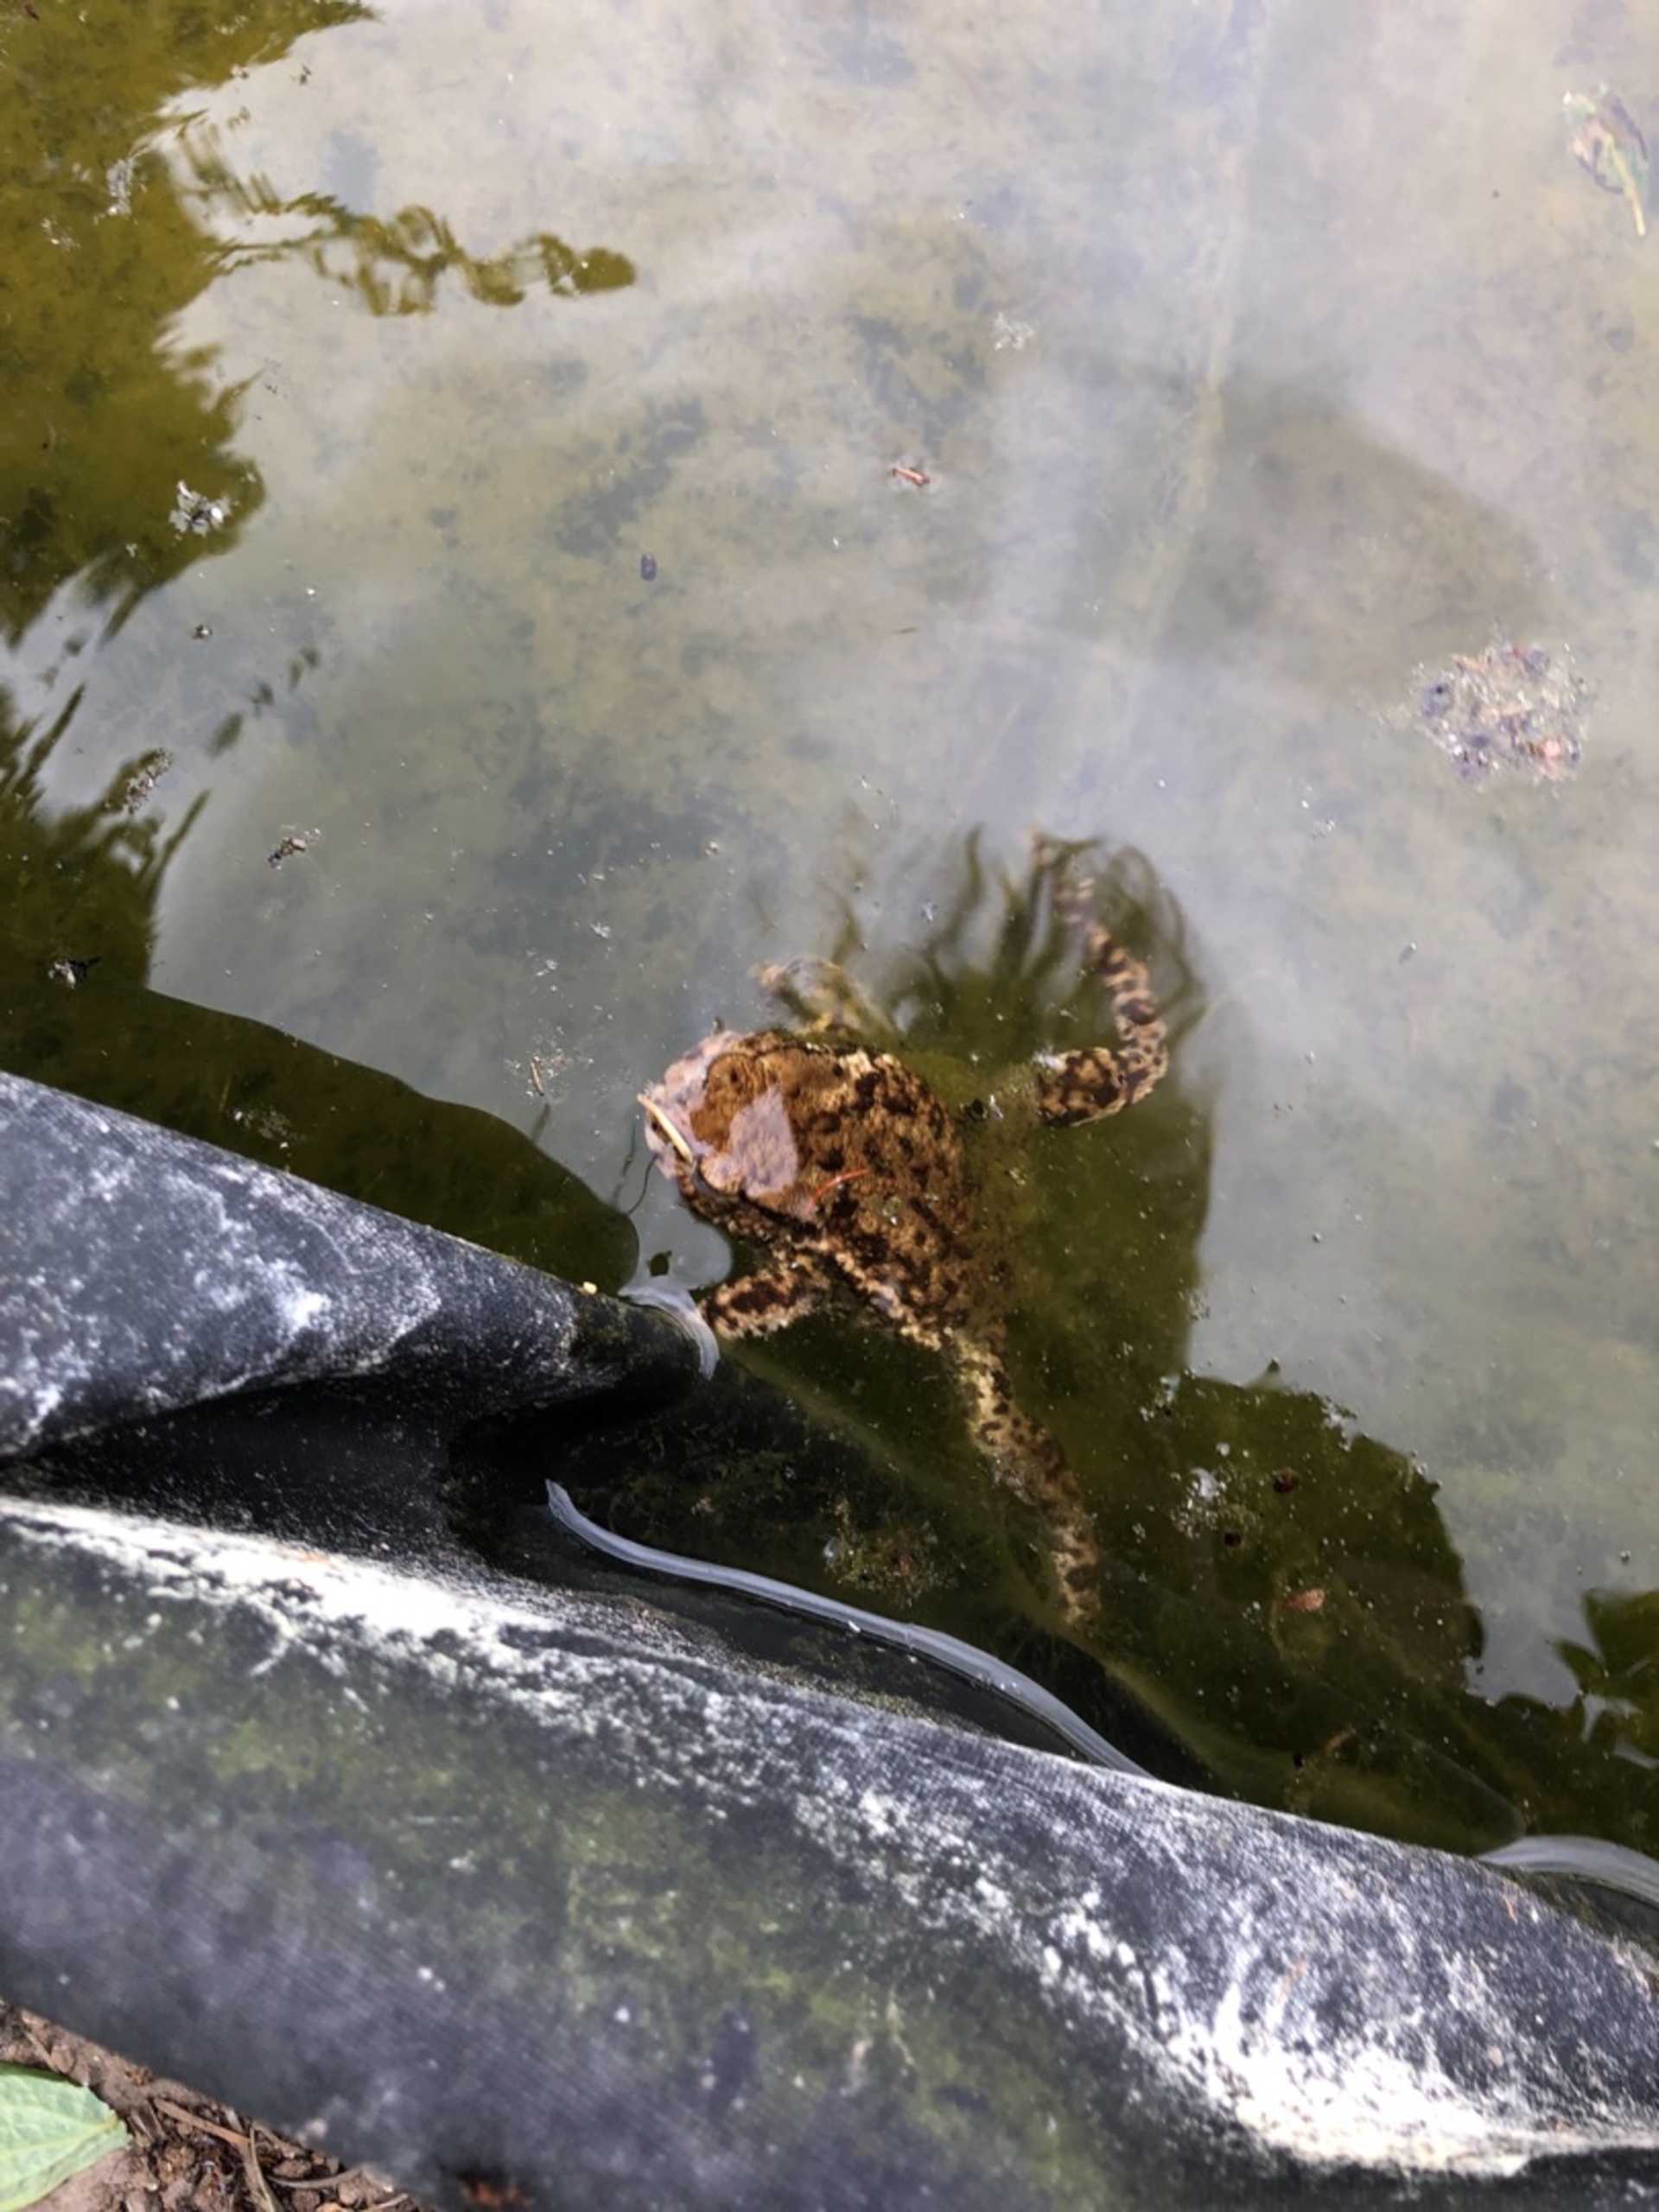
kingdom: Animalia
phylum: Chordata
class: Amphibia
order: Anura
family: Bufonidae
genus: Bufo
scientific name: Bufo bufo
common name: Skrubtudse
